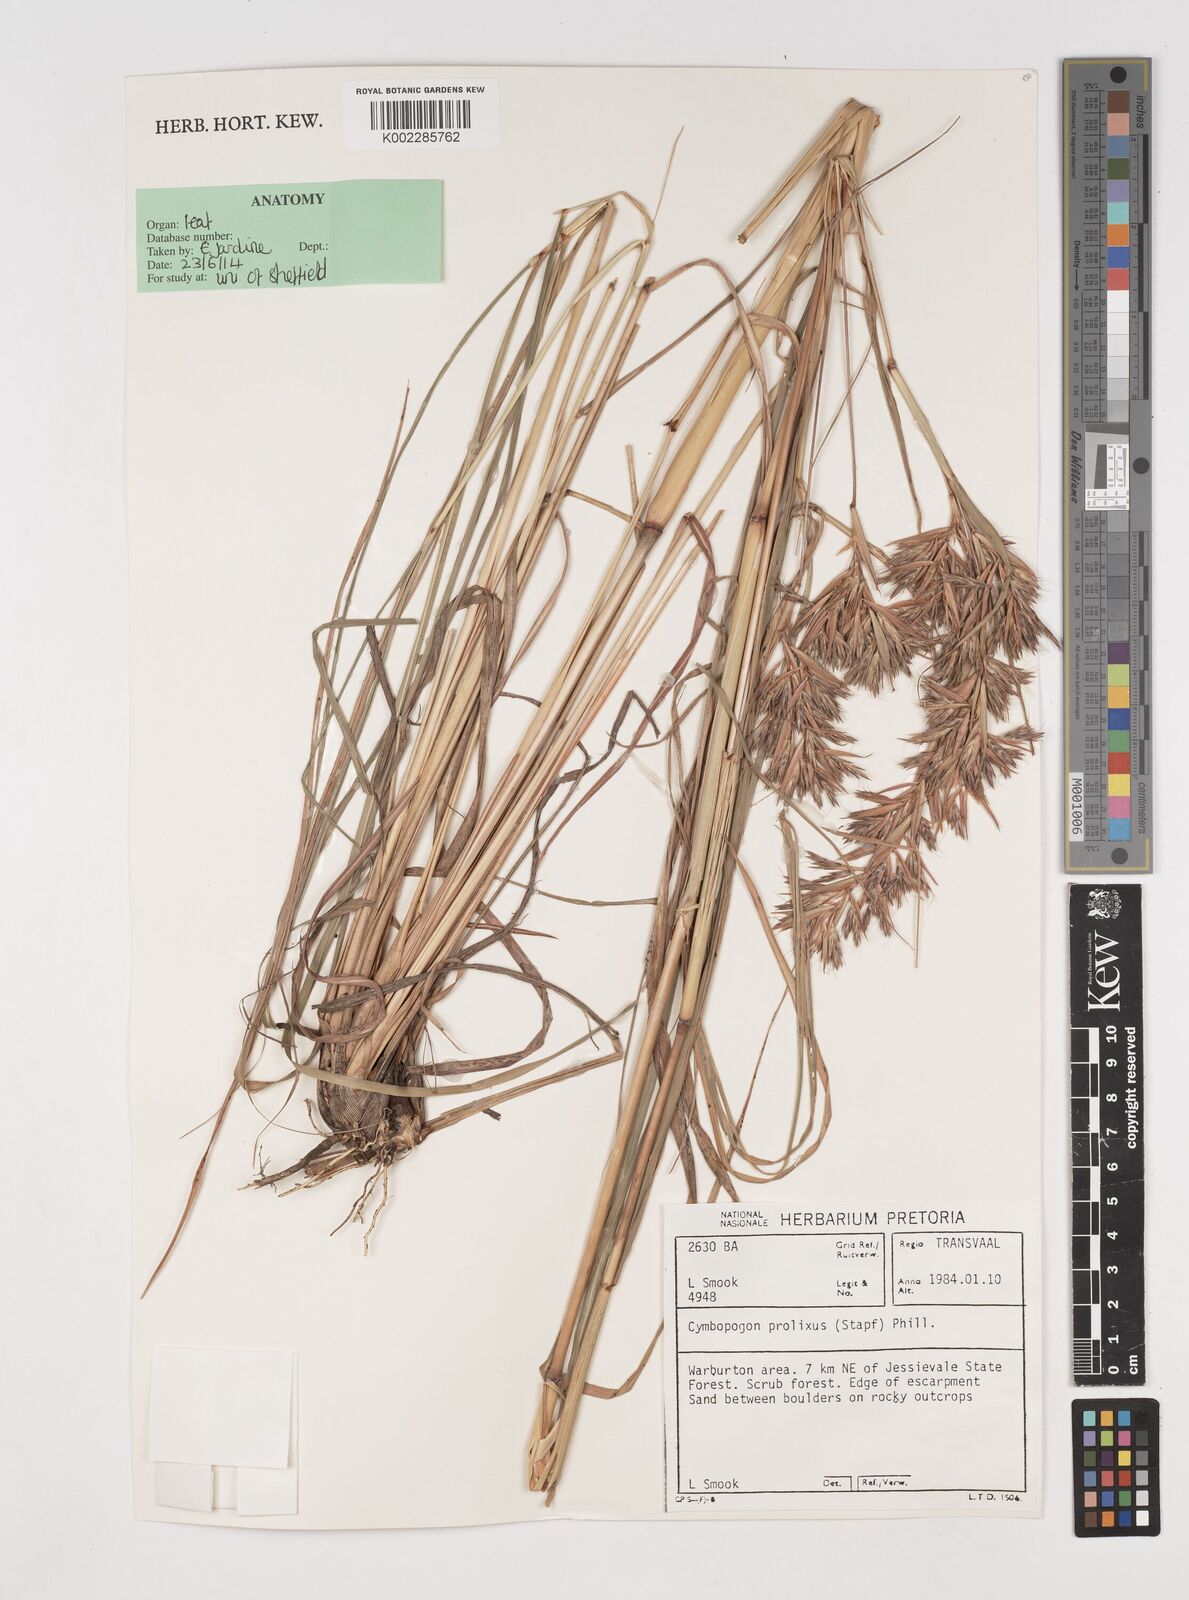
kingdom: Plantae
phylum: Tracheophyta
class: Liliopsida
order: Poales
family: Poaceae
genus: Cymbopogon
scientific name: Cymbopogon nardus
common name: Giant turpentine grass
